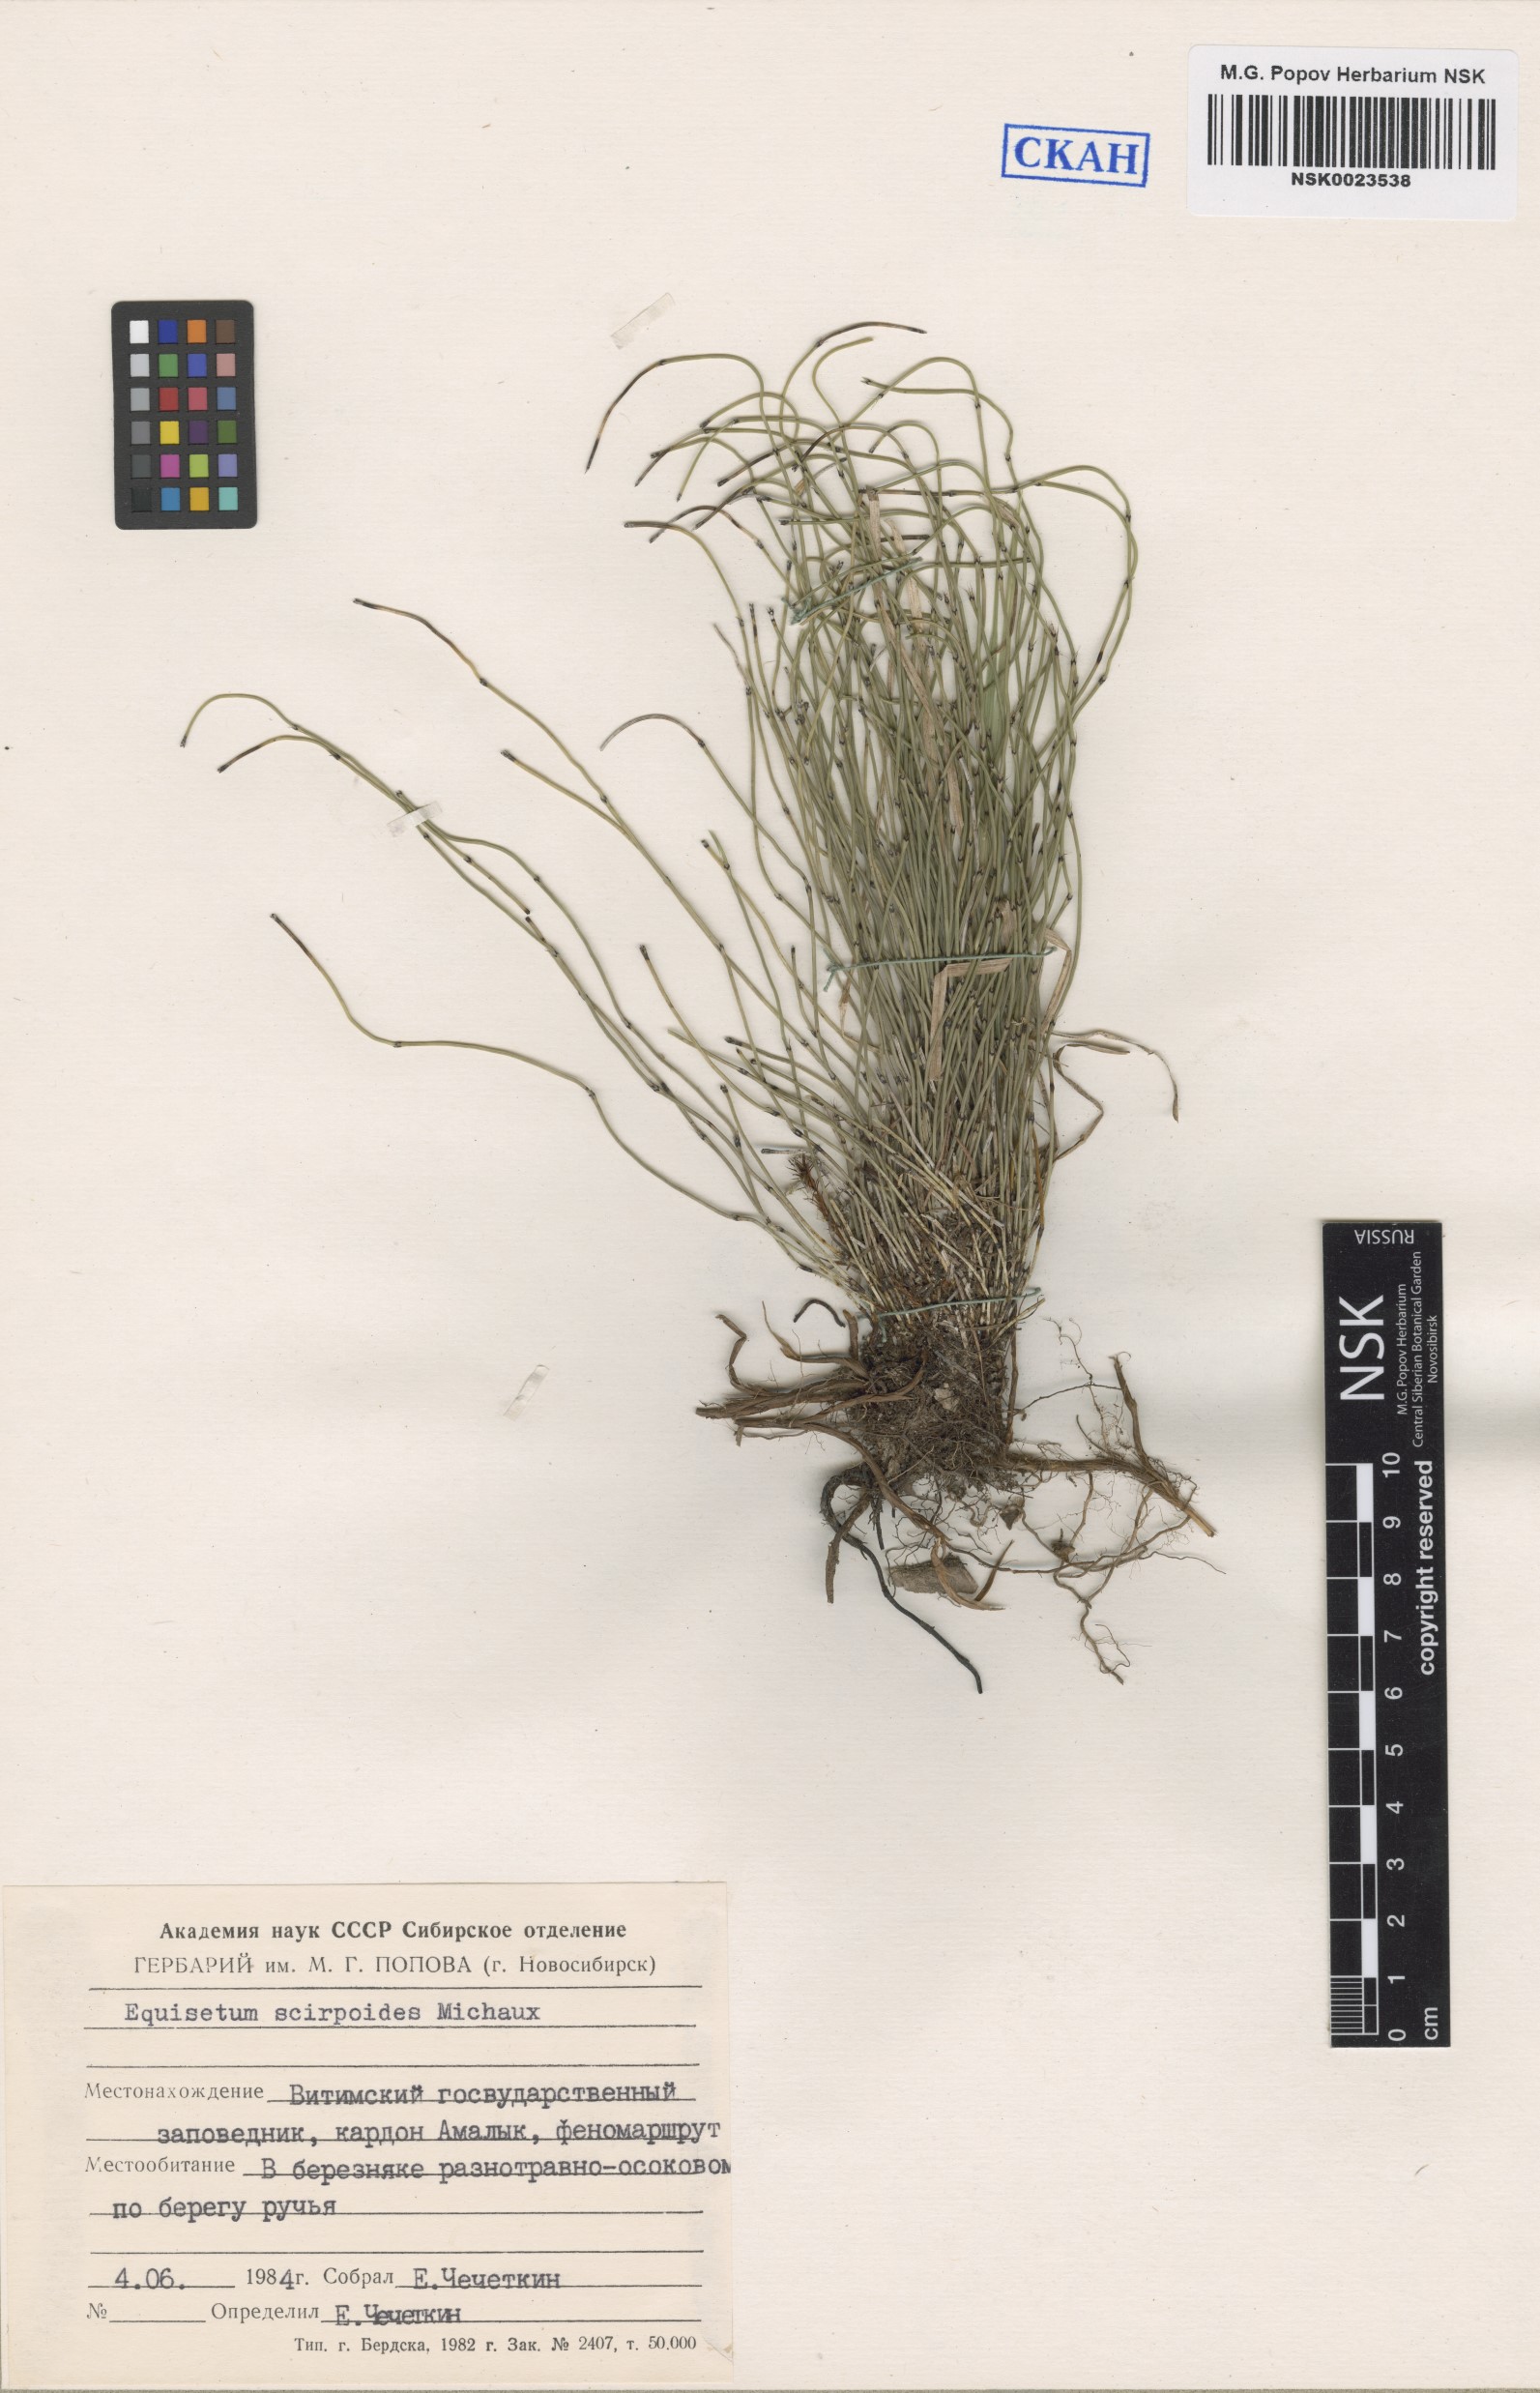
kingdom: Plantae
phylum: Tracheophyta
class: Polypodiopsida
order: Equisetales
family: Equisetaceae
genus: Equisetum
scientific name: Equisetum scirpoides
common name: Delicate horsetail
